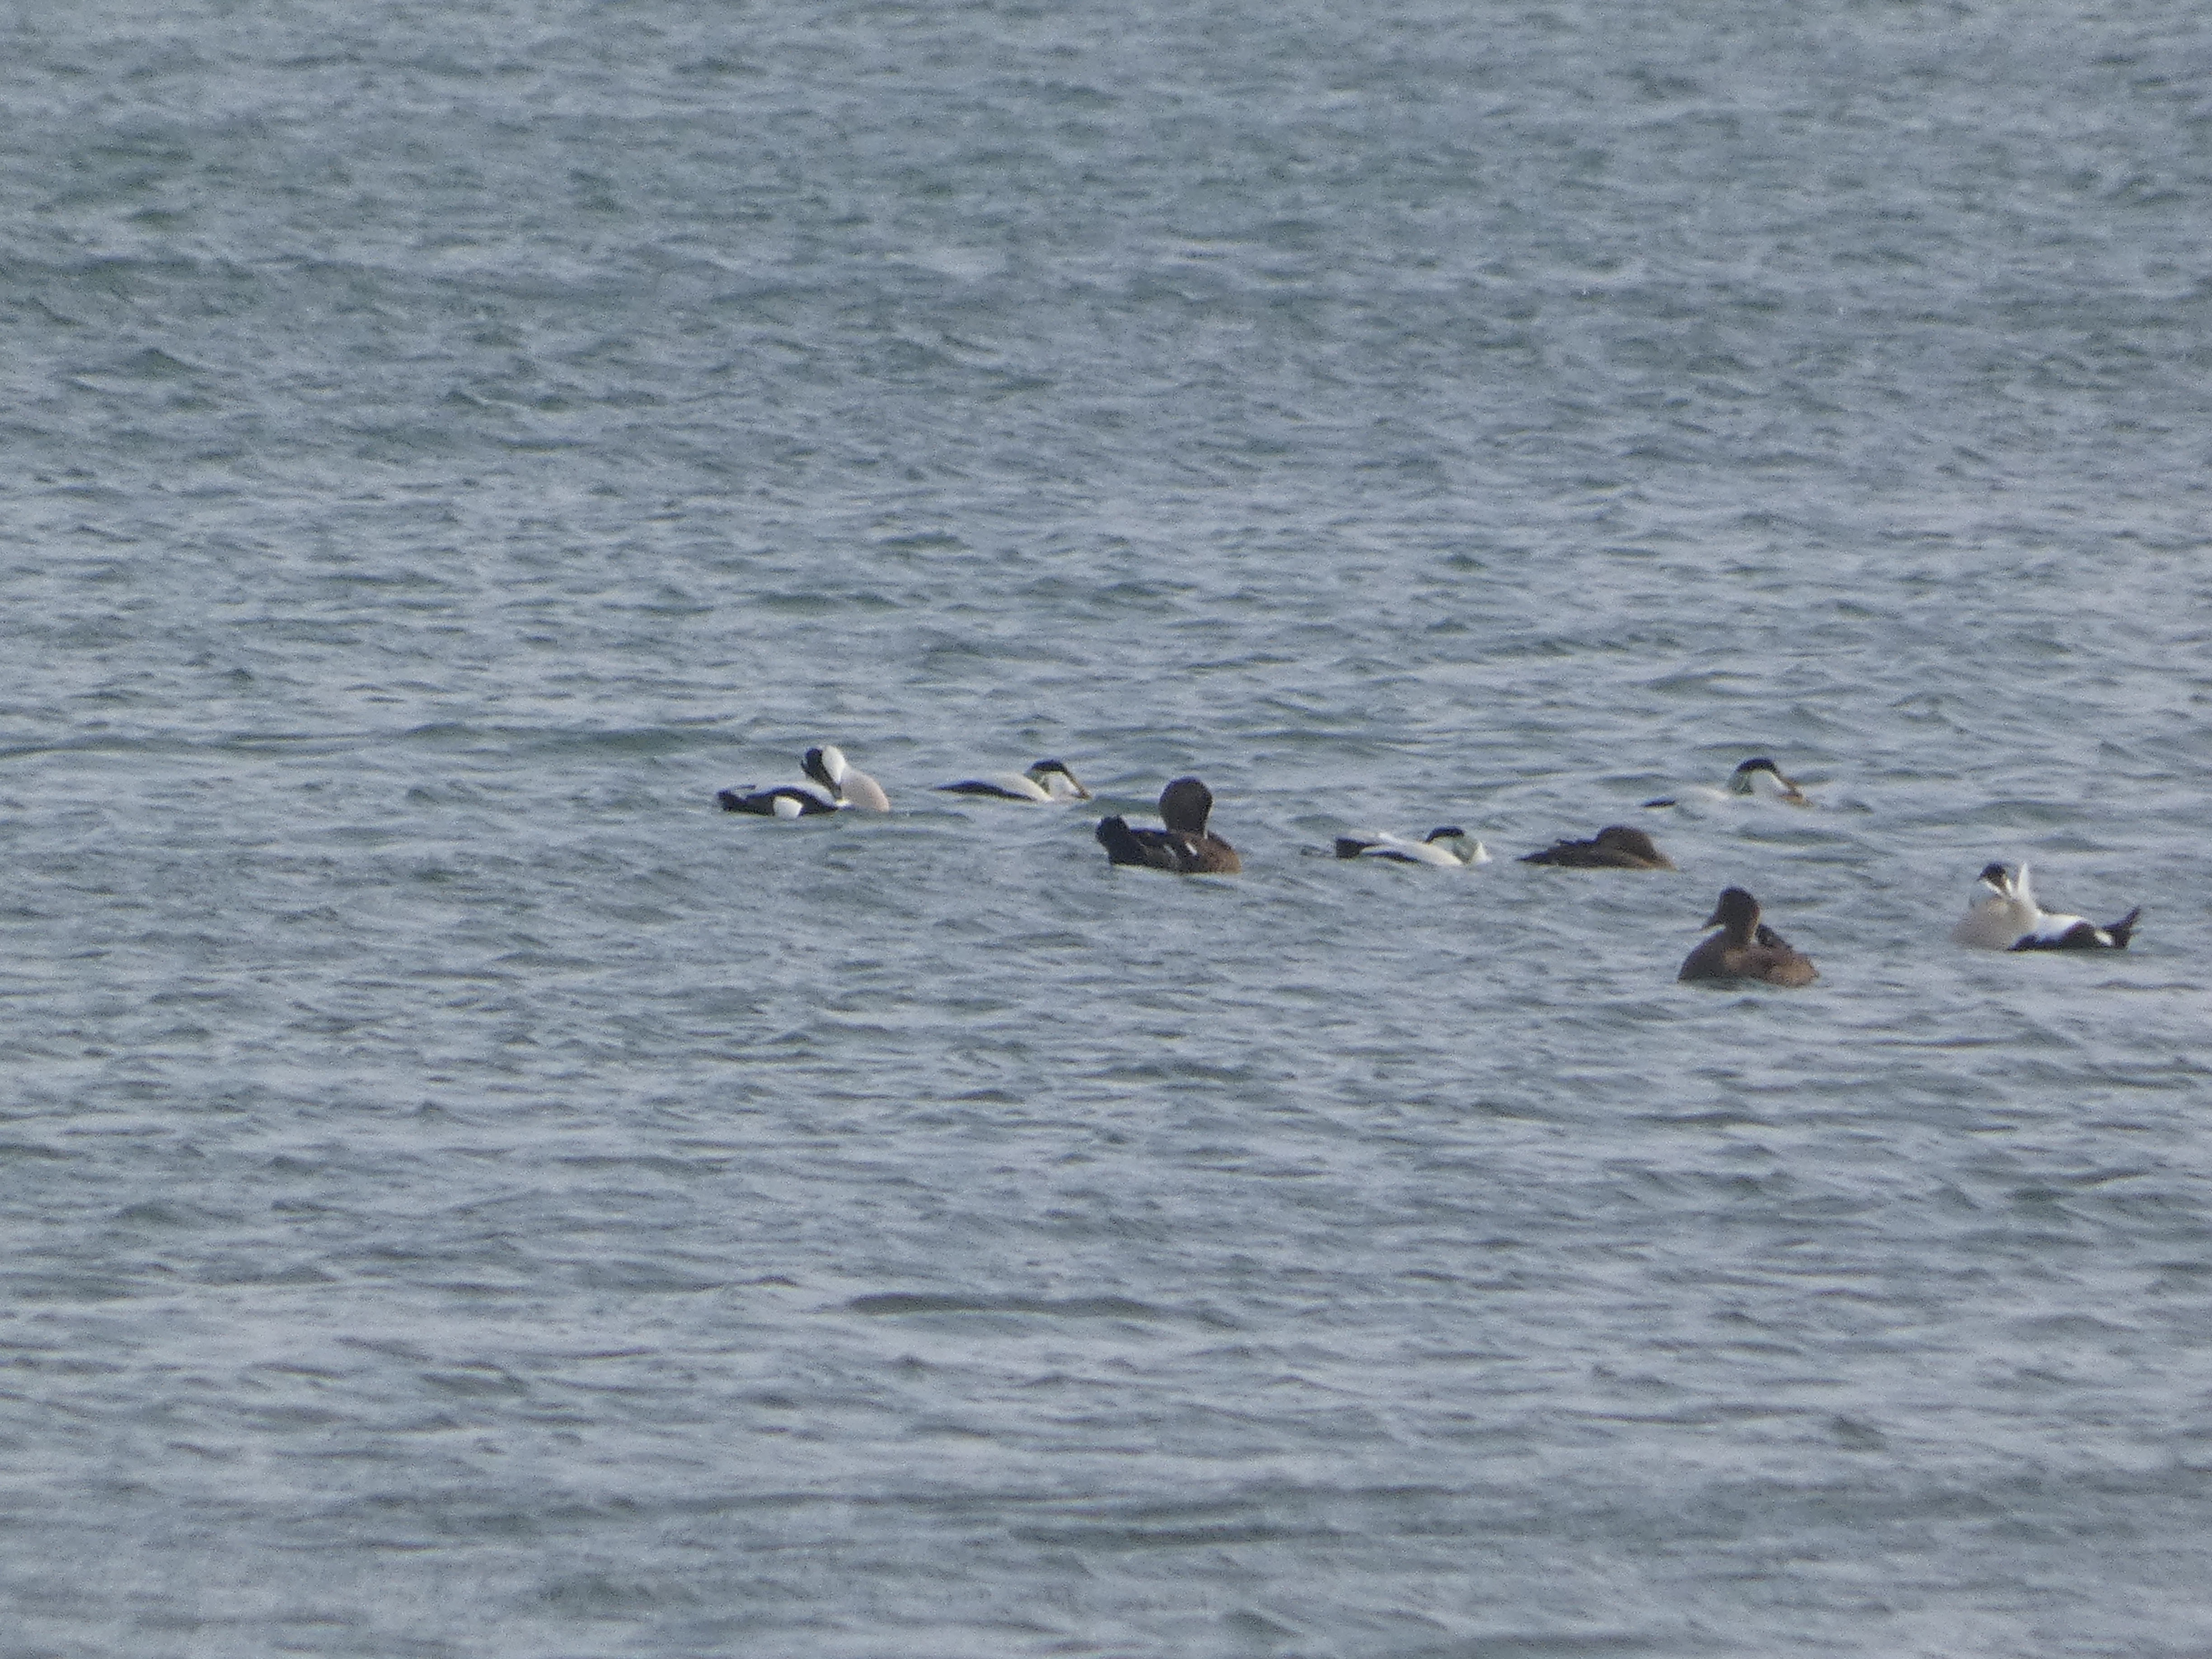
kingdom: Animalia
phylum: Chordata
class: Aves
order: Anseriformes
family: Anatidae
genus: Somateria
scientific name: Somateria mollissima
